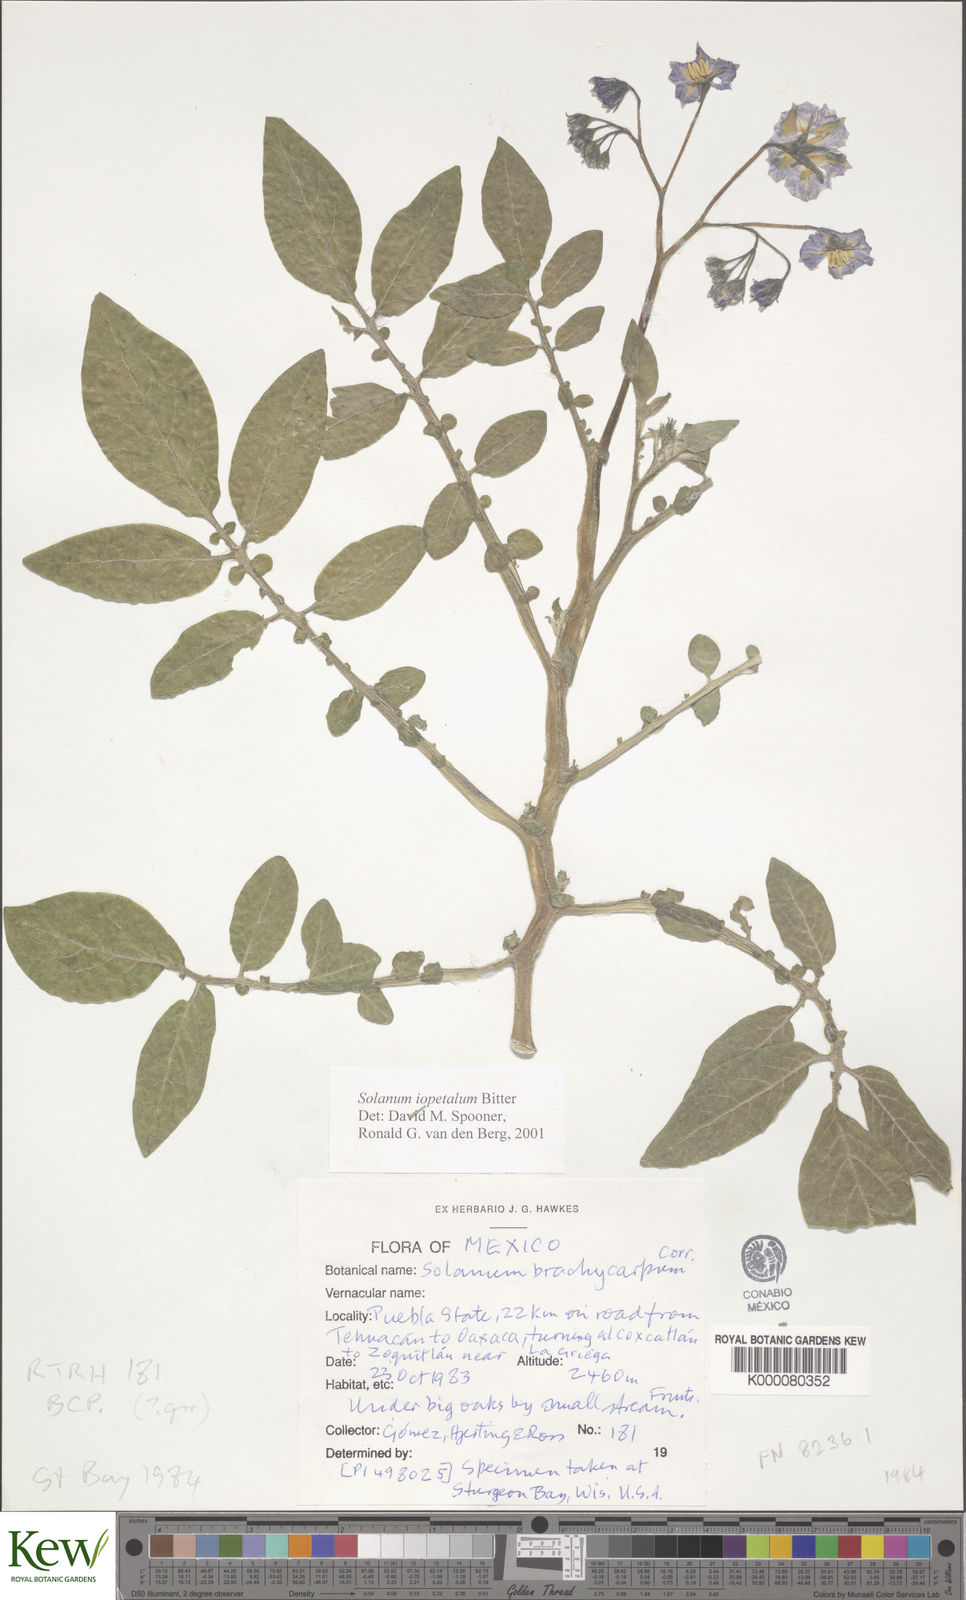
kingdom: Plantae
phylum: Tracheophyta
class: Magnoliopsida
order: Solanales
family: Solanaceae
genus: Solanum
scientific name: Solanum iopetalum
